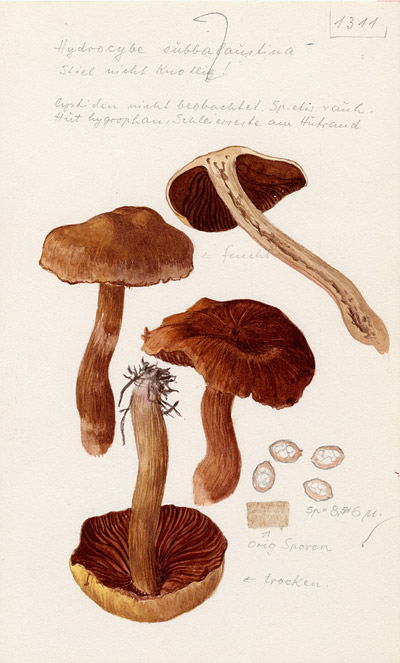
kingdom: Fungi
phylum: Basidiomycota
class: Agaricomycetes
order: Agaricales
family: Cortinariaceae
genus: Cortinarius
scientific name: Cortinarius subbalaustinus
